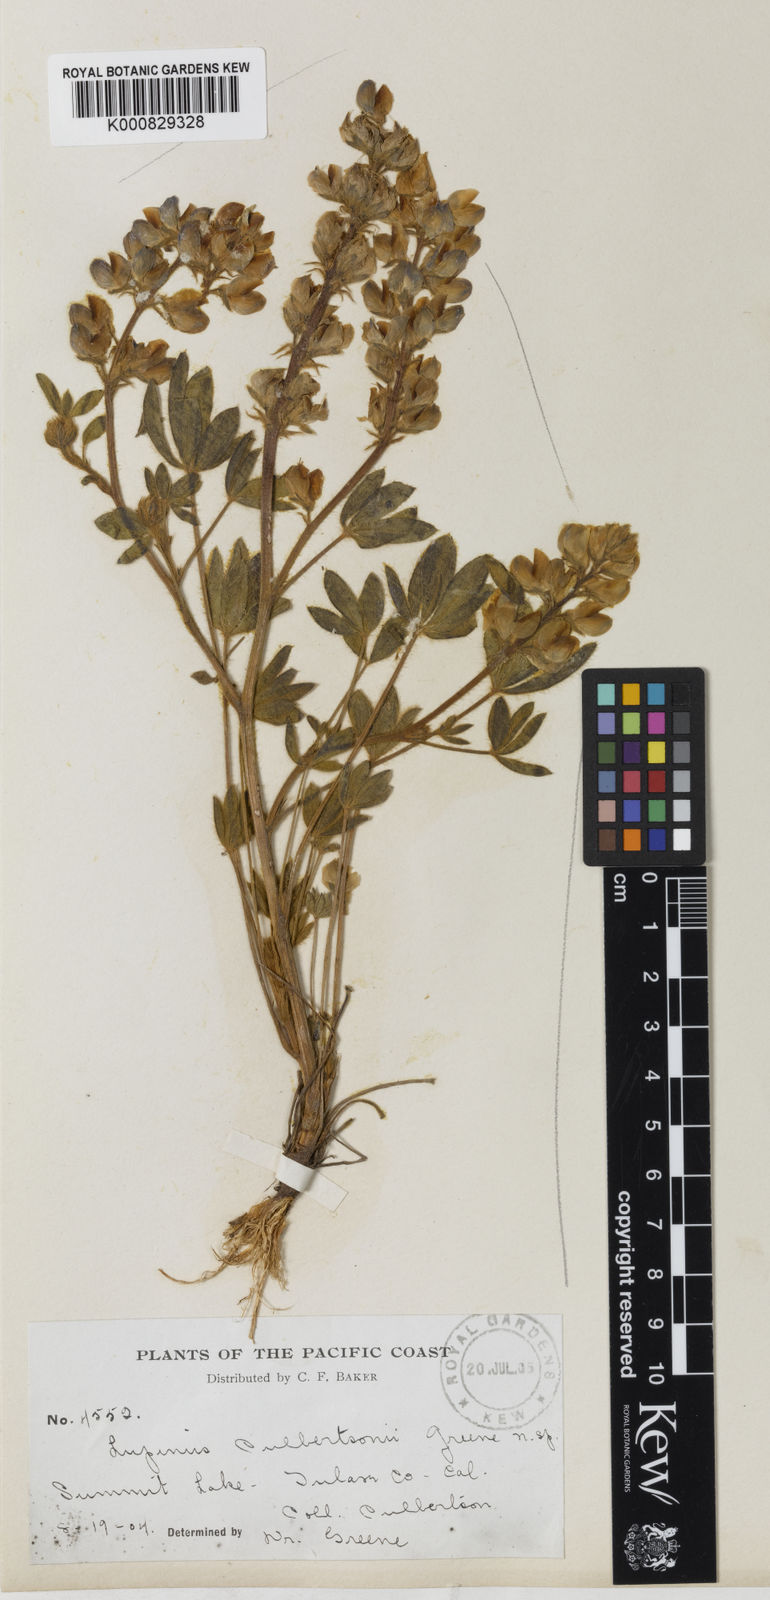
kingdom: Plantae
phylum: Tracheophyta
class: Magnoliopsida
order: Fabales
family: Fabaceae
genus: Lupinus
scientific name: Lupinus culbertsonii
